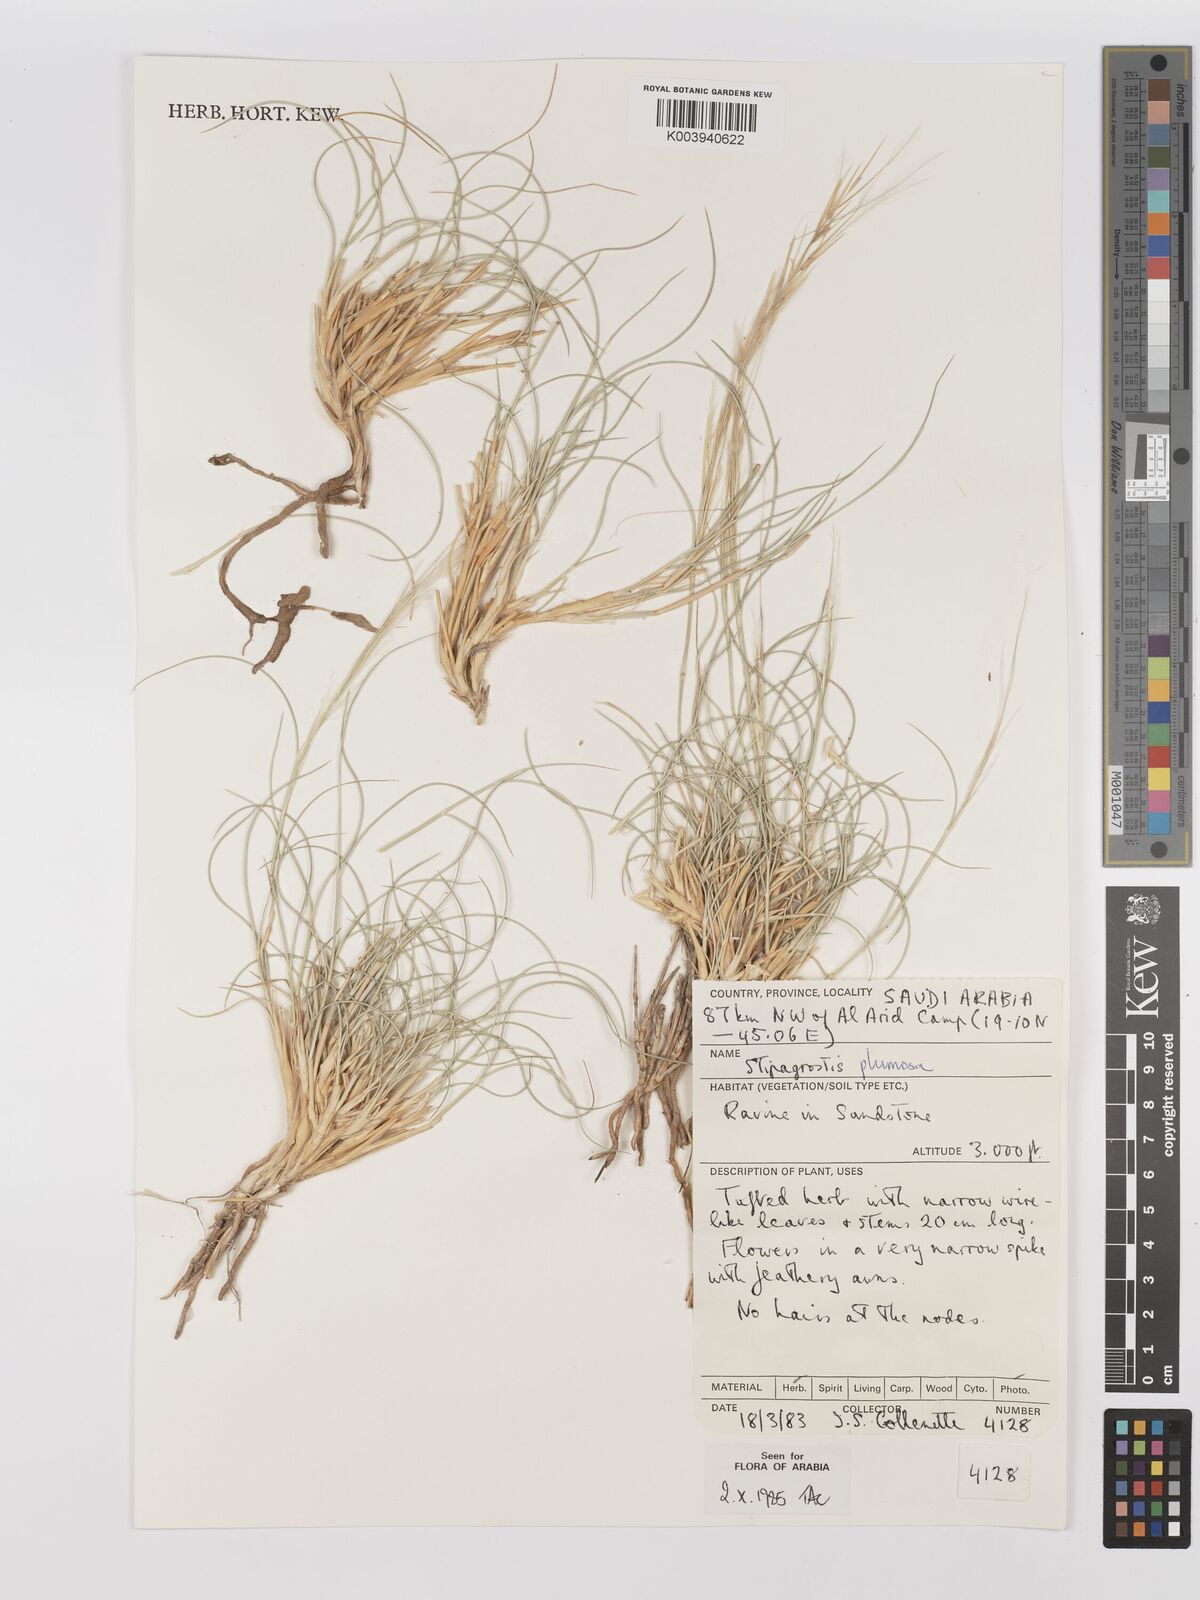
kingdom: Plantae
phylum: Tracheophyta
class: Liliopsida
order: Poales
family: Poaceae
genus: Stipagrostis
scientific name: Stipagrostis plumosa
